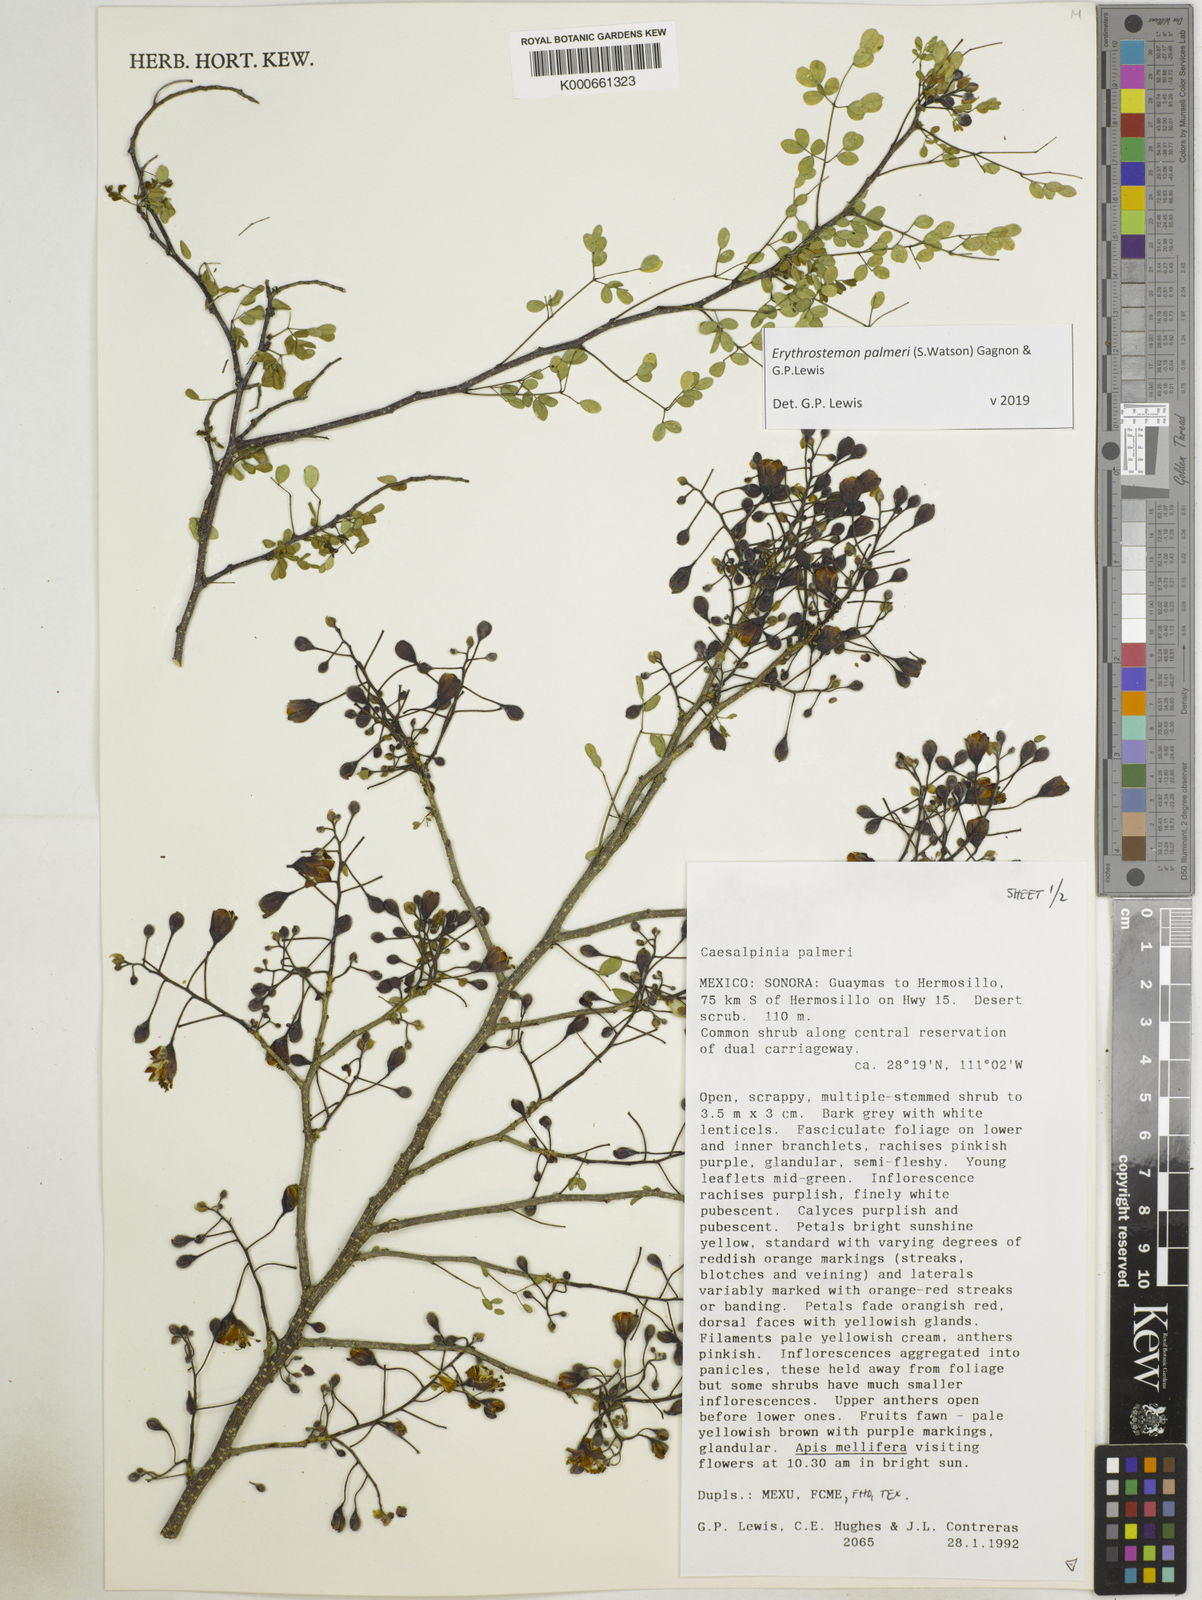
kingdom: Plantae
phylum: Tracheophyta
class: Magnoliopsida
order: Fabales
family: Fabaceae
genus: Erythrostemon
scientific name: Erythrostemon palmeri
